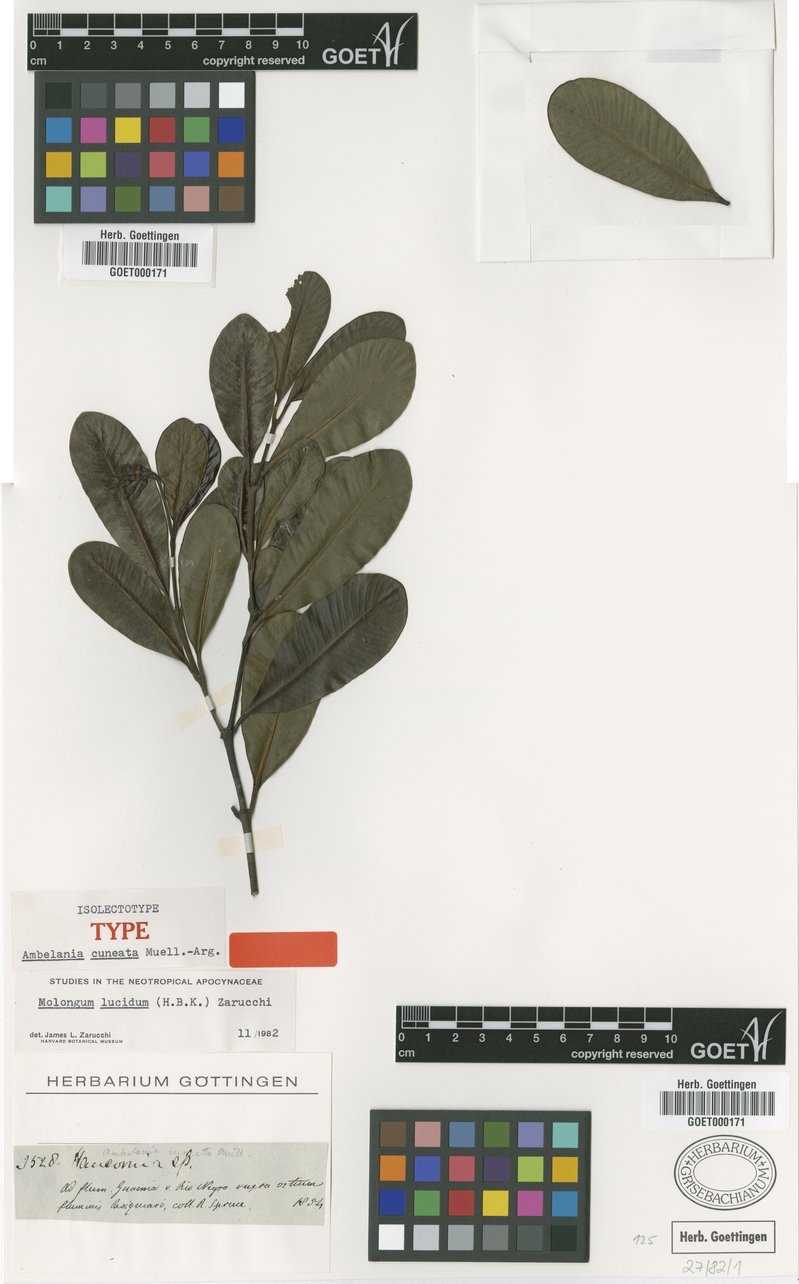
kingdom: Plantae
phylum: Tracheophyta
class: Magnoliopsida
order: Gentianales
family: Apocynaceae
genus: Molongum
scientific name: Molongum lucidum
